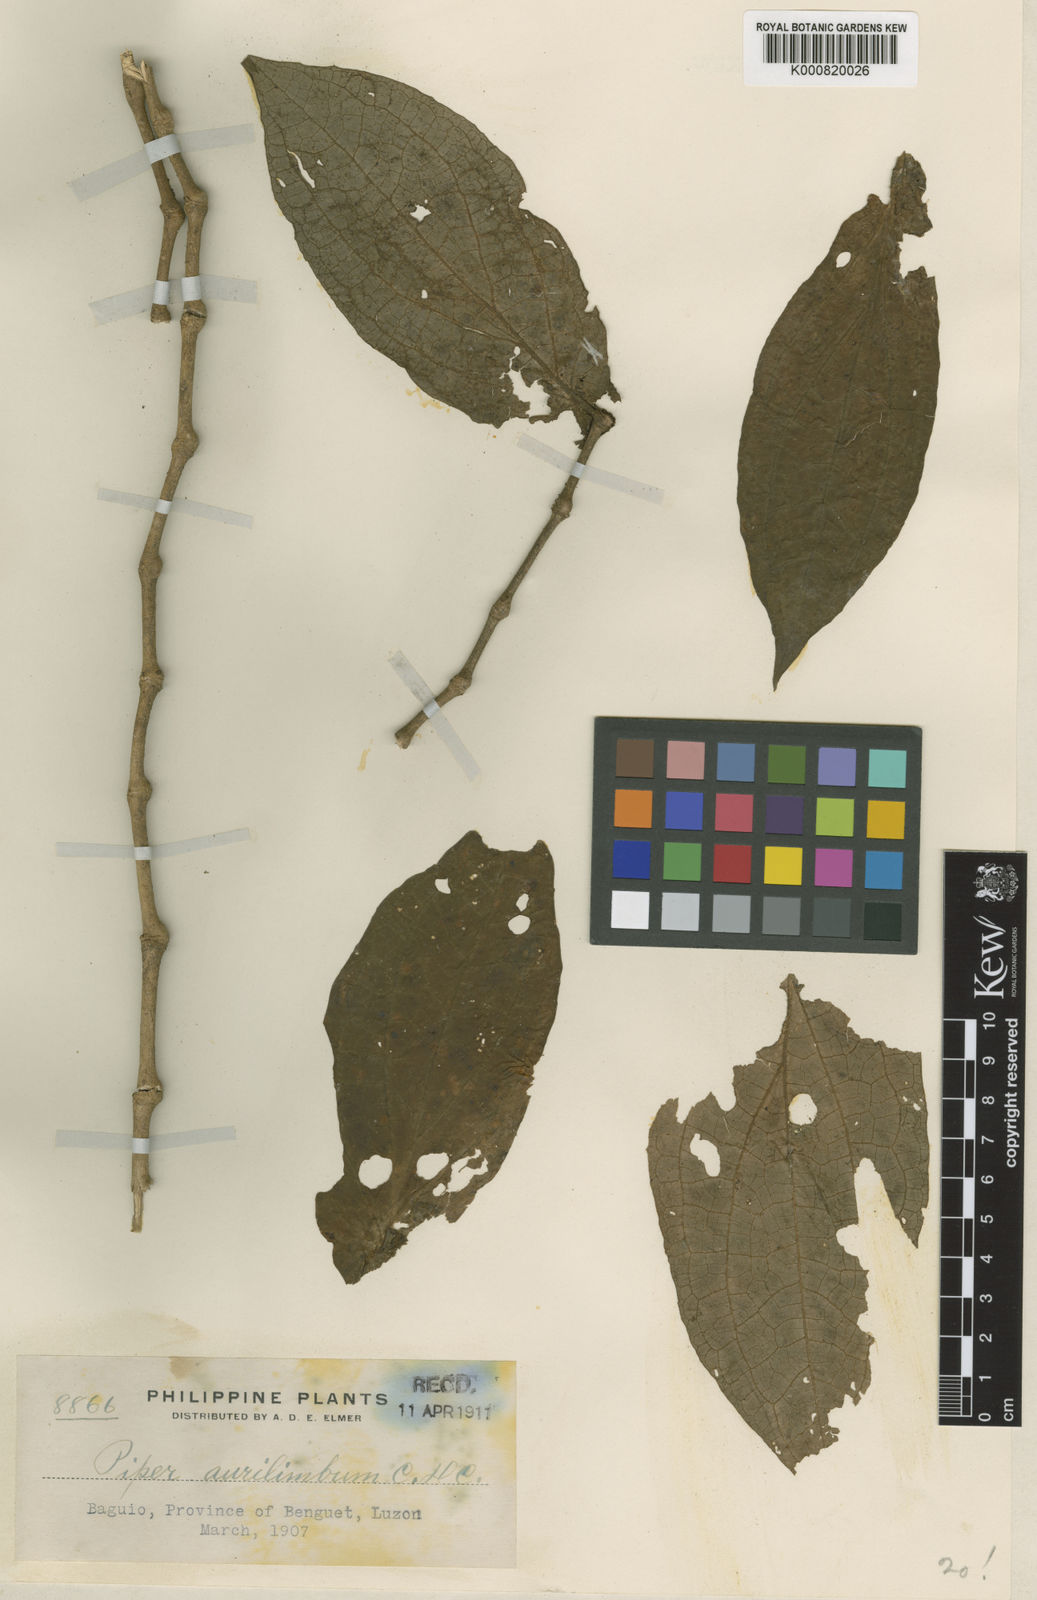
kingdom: Plantae
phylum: Tracheophyta
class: Magnoliopsida
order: Piperales
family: Piperaceae
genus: Piper
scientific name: Piper aurilimbum
